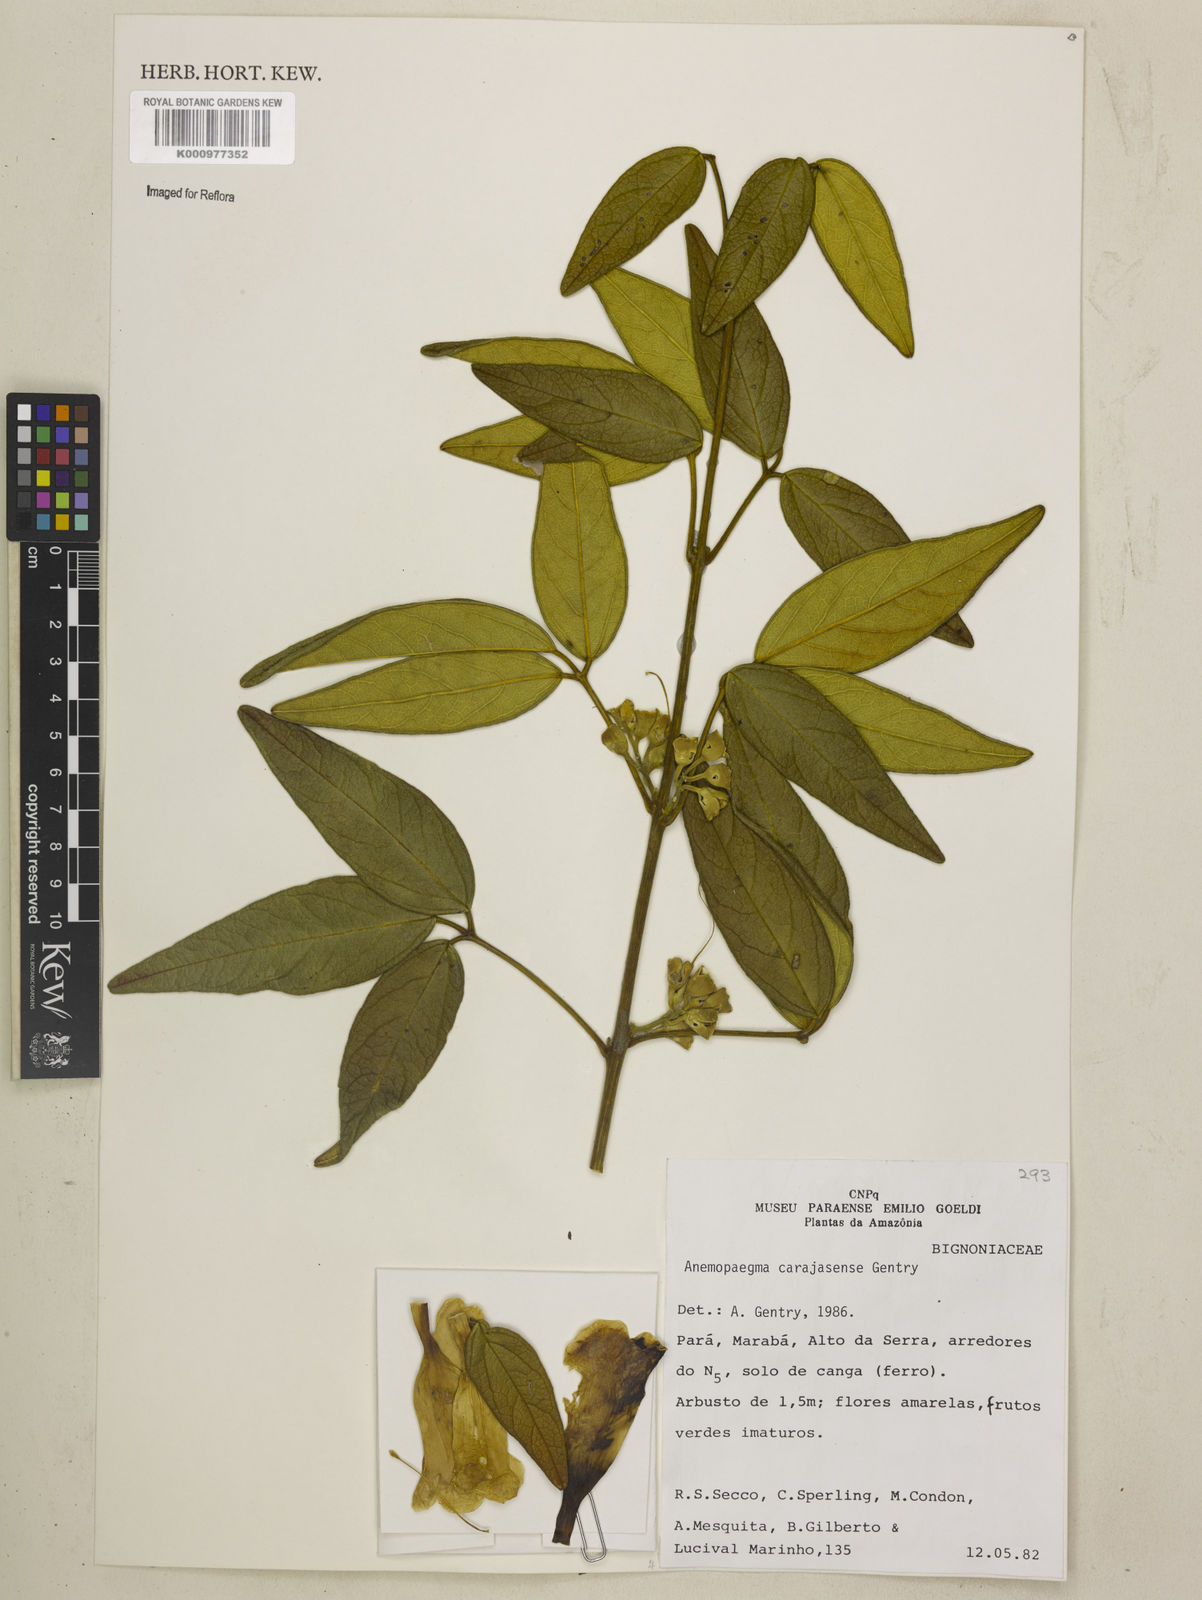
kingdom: Plantae
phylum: Tracheophyta
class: Magnoliopsida
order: Lamiales
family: Bignoniaceae
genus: Anemopaegma
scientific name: Anemopaegma
